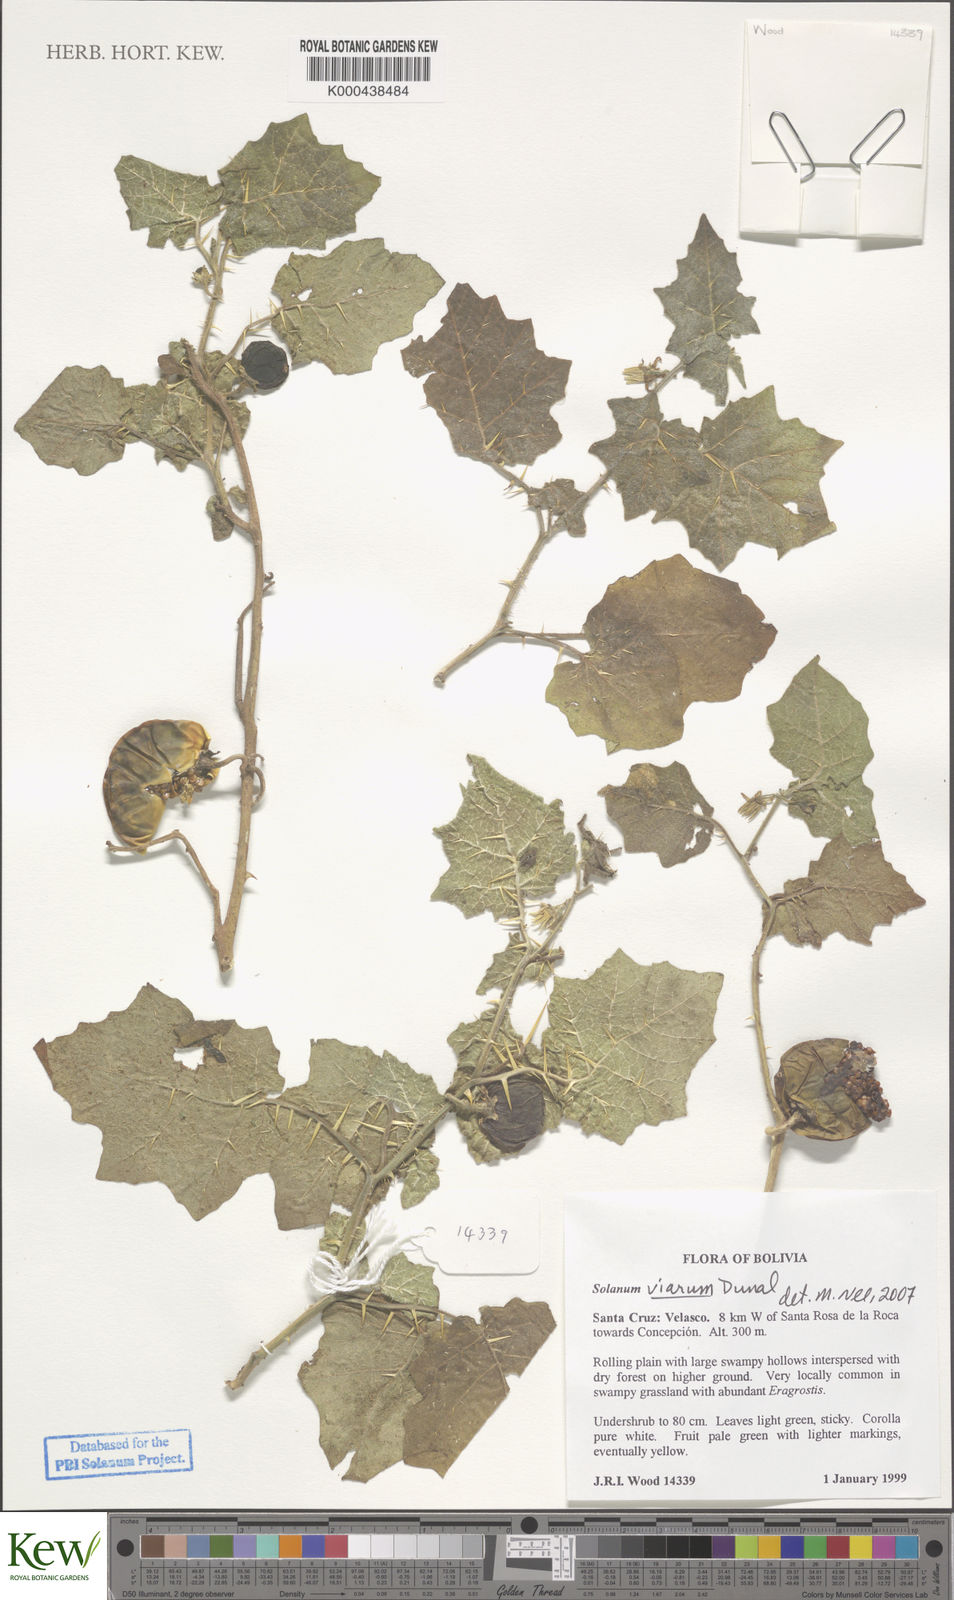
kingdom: Plantae
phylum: Tracheophyta
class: Magnoliopsida
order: Solanales
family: Solanaceae
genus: Solanum
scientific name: Solanum viarum
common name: Tropical soda apple
